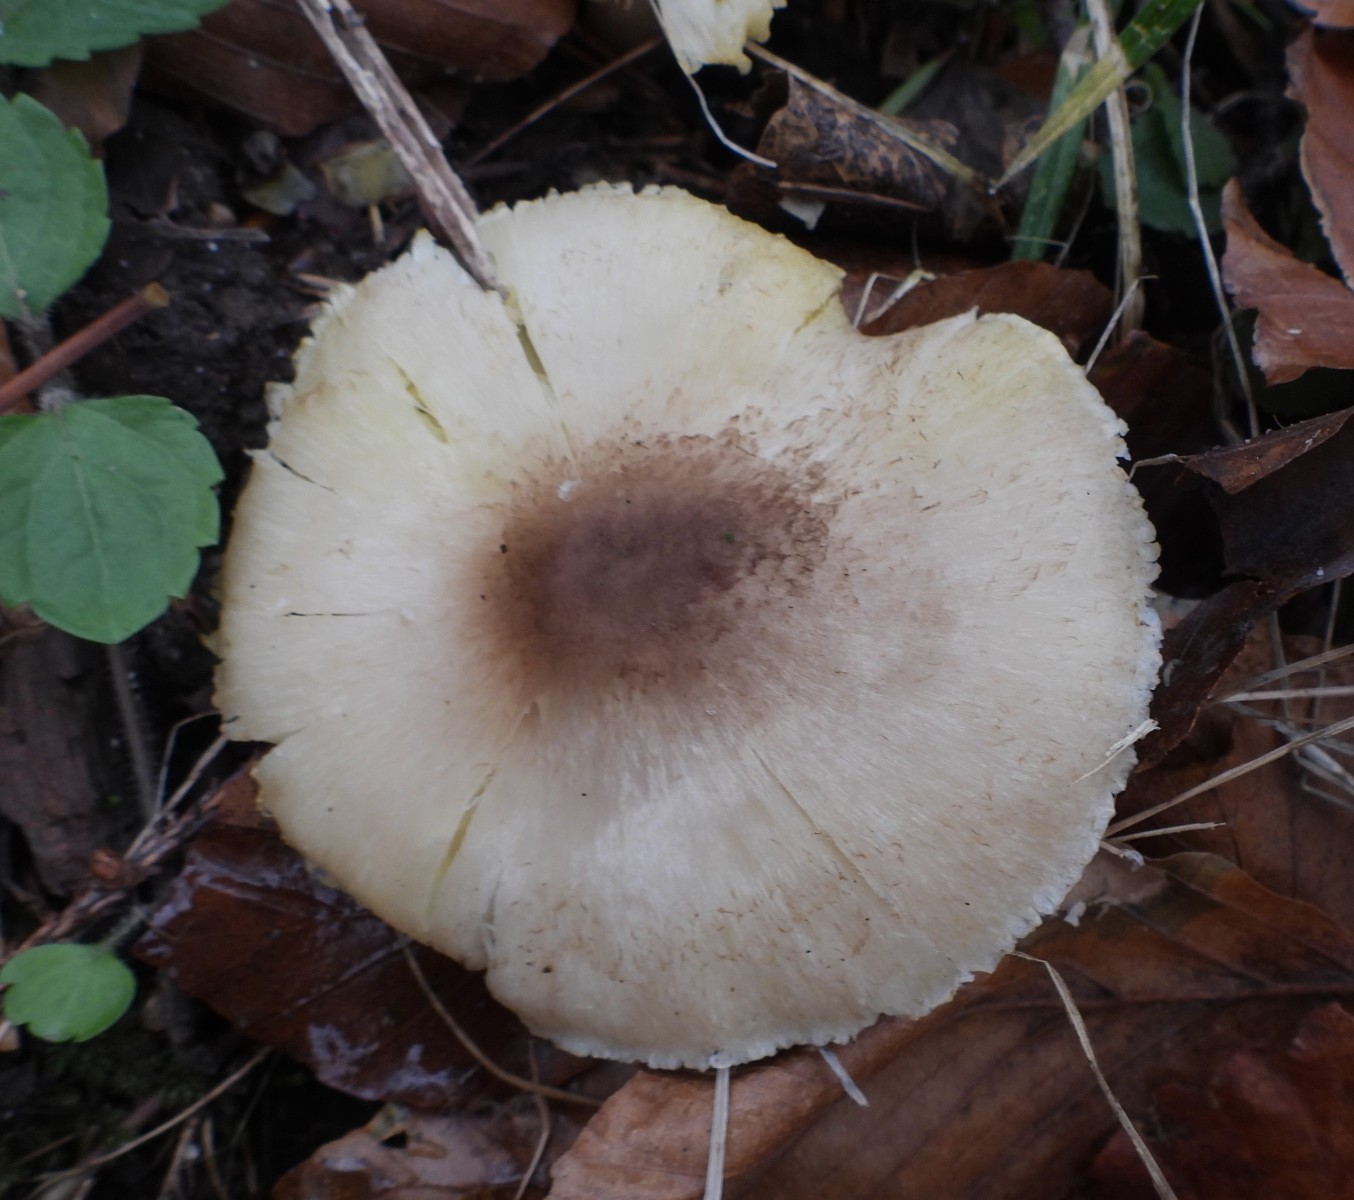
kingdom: Fungi
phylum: Basidiomycota
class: Agaricomycetes
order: Agaricales
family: Tricholomataceae
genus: Tricholoma
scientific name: Tricholoma scalpturatum
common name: gulplettet ridderhat
